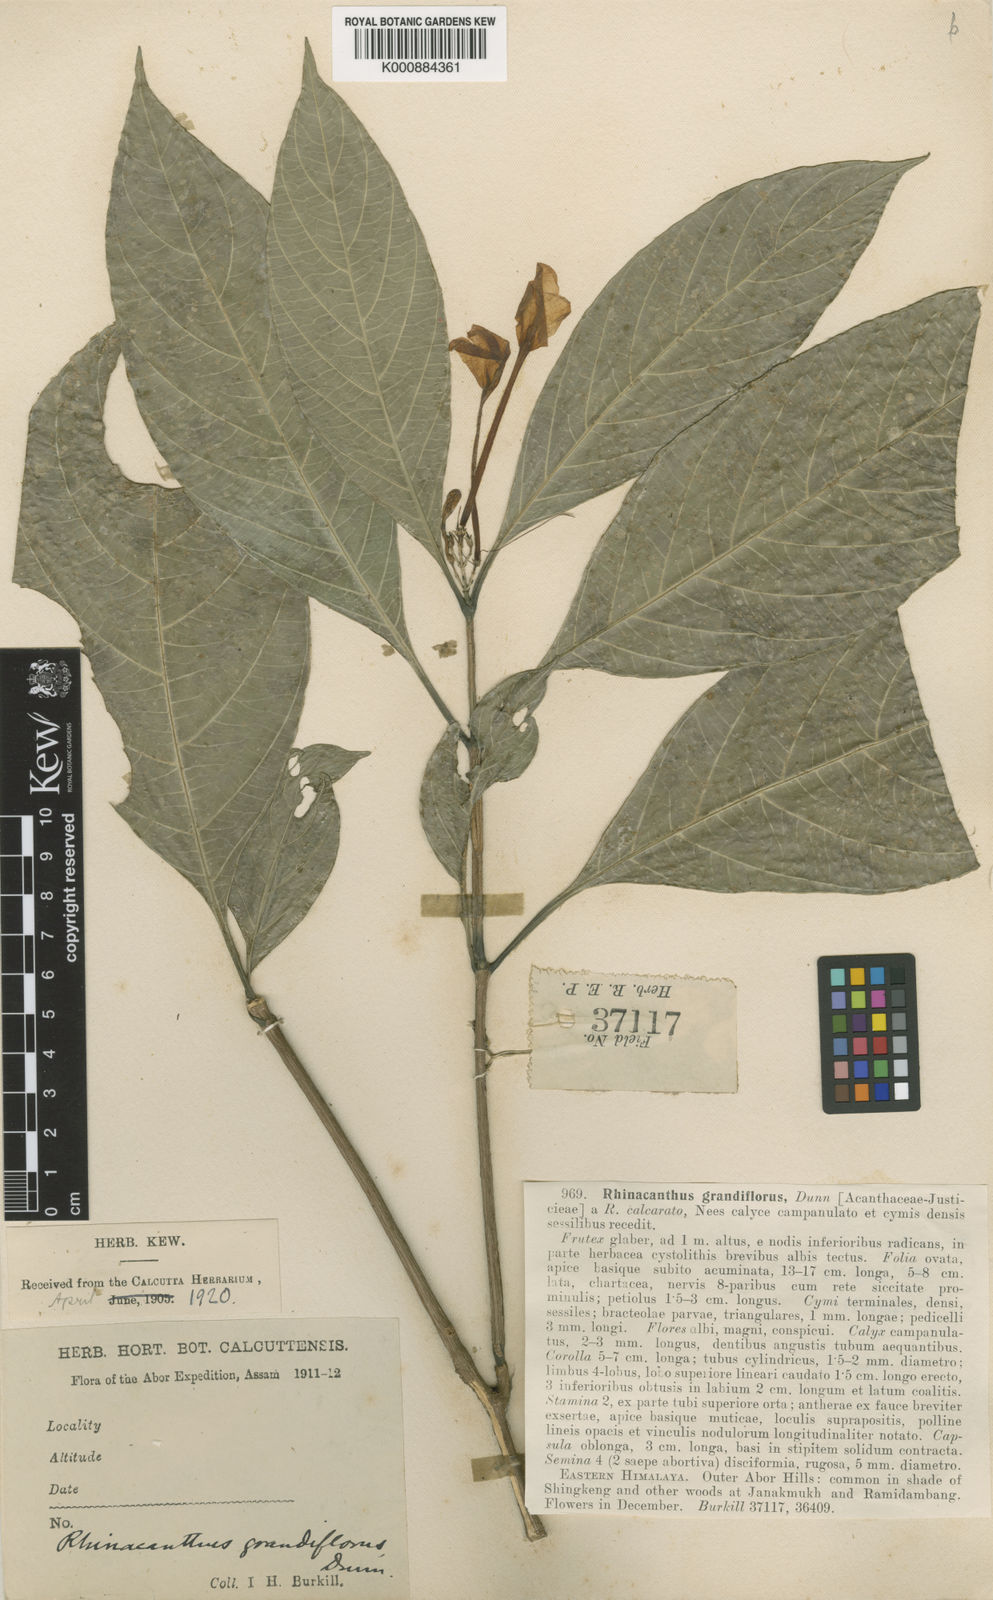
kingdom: Plantae
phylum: Tracheophyta
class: Magnoliopsida
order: Lamiales
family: Acanthaceae
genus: Rhinacanthus
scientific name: Rhinacanthus grandiflorus
